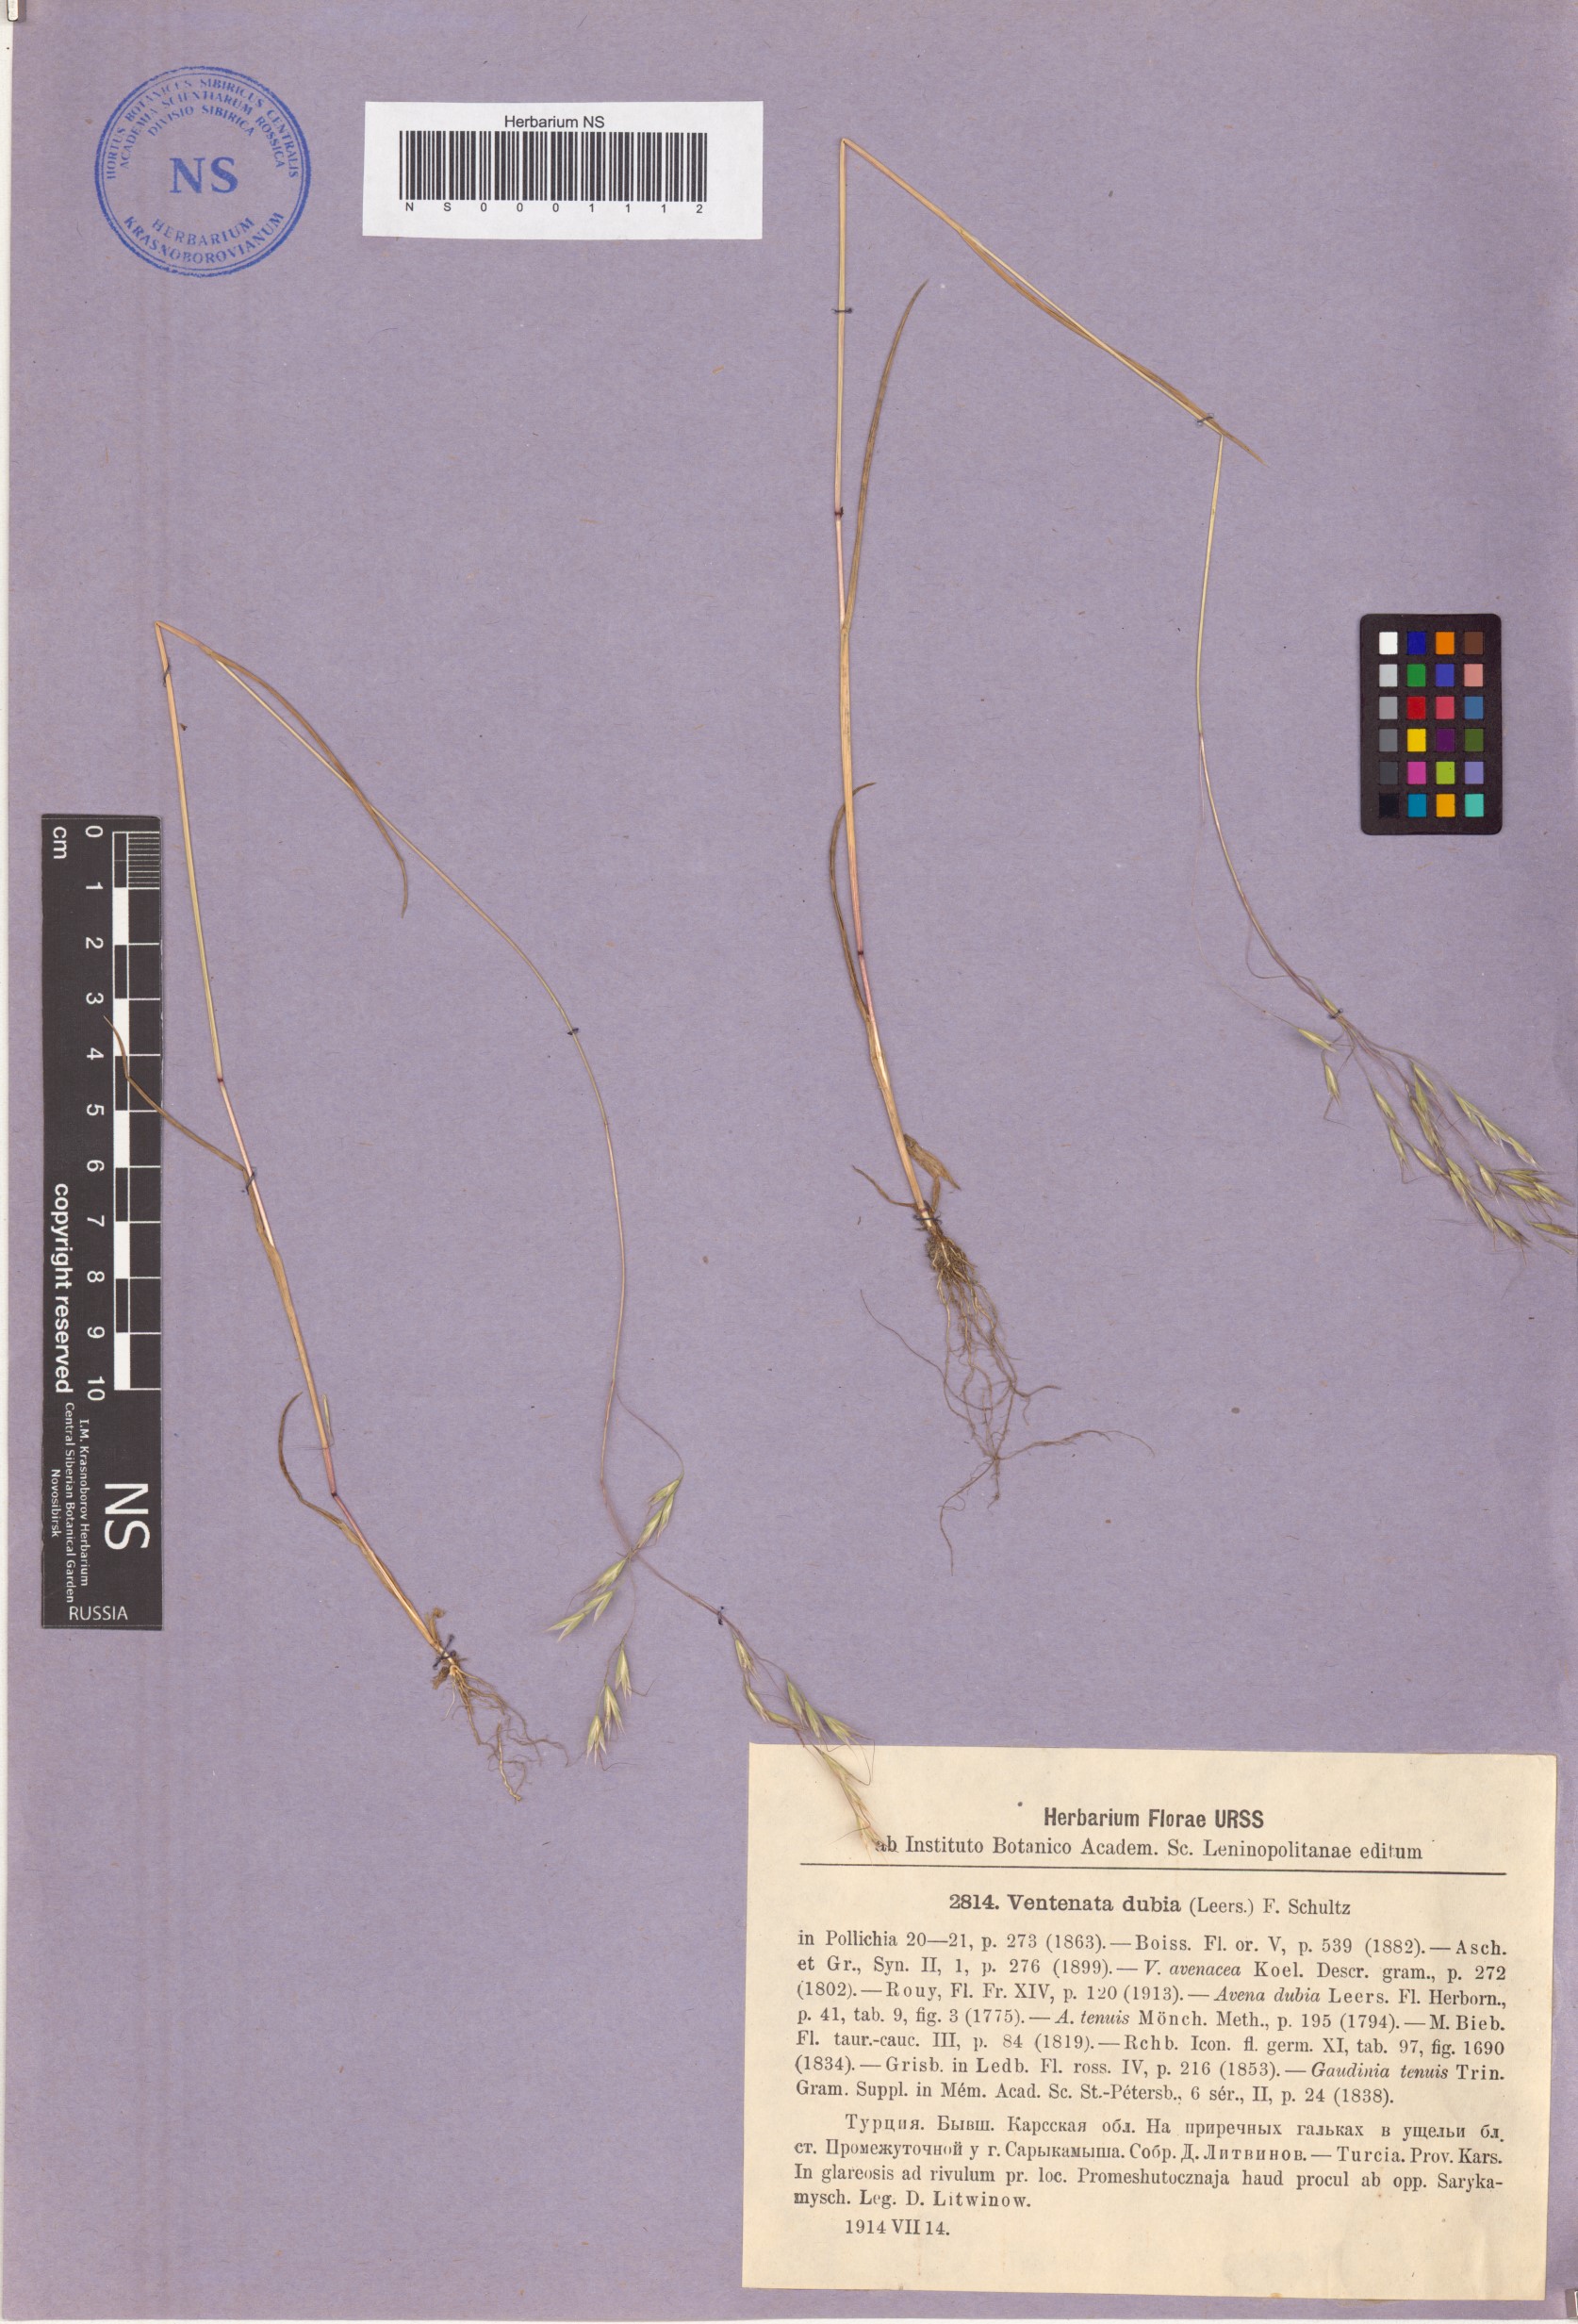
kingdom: Plantae
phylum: Tracheophyta
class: Liliopsida
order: Poales
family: Poaceae
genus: Ventenata
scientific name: Ventenata dubia
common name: North africa grass
